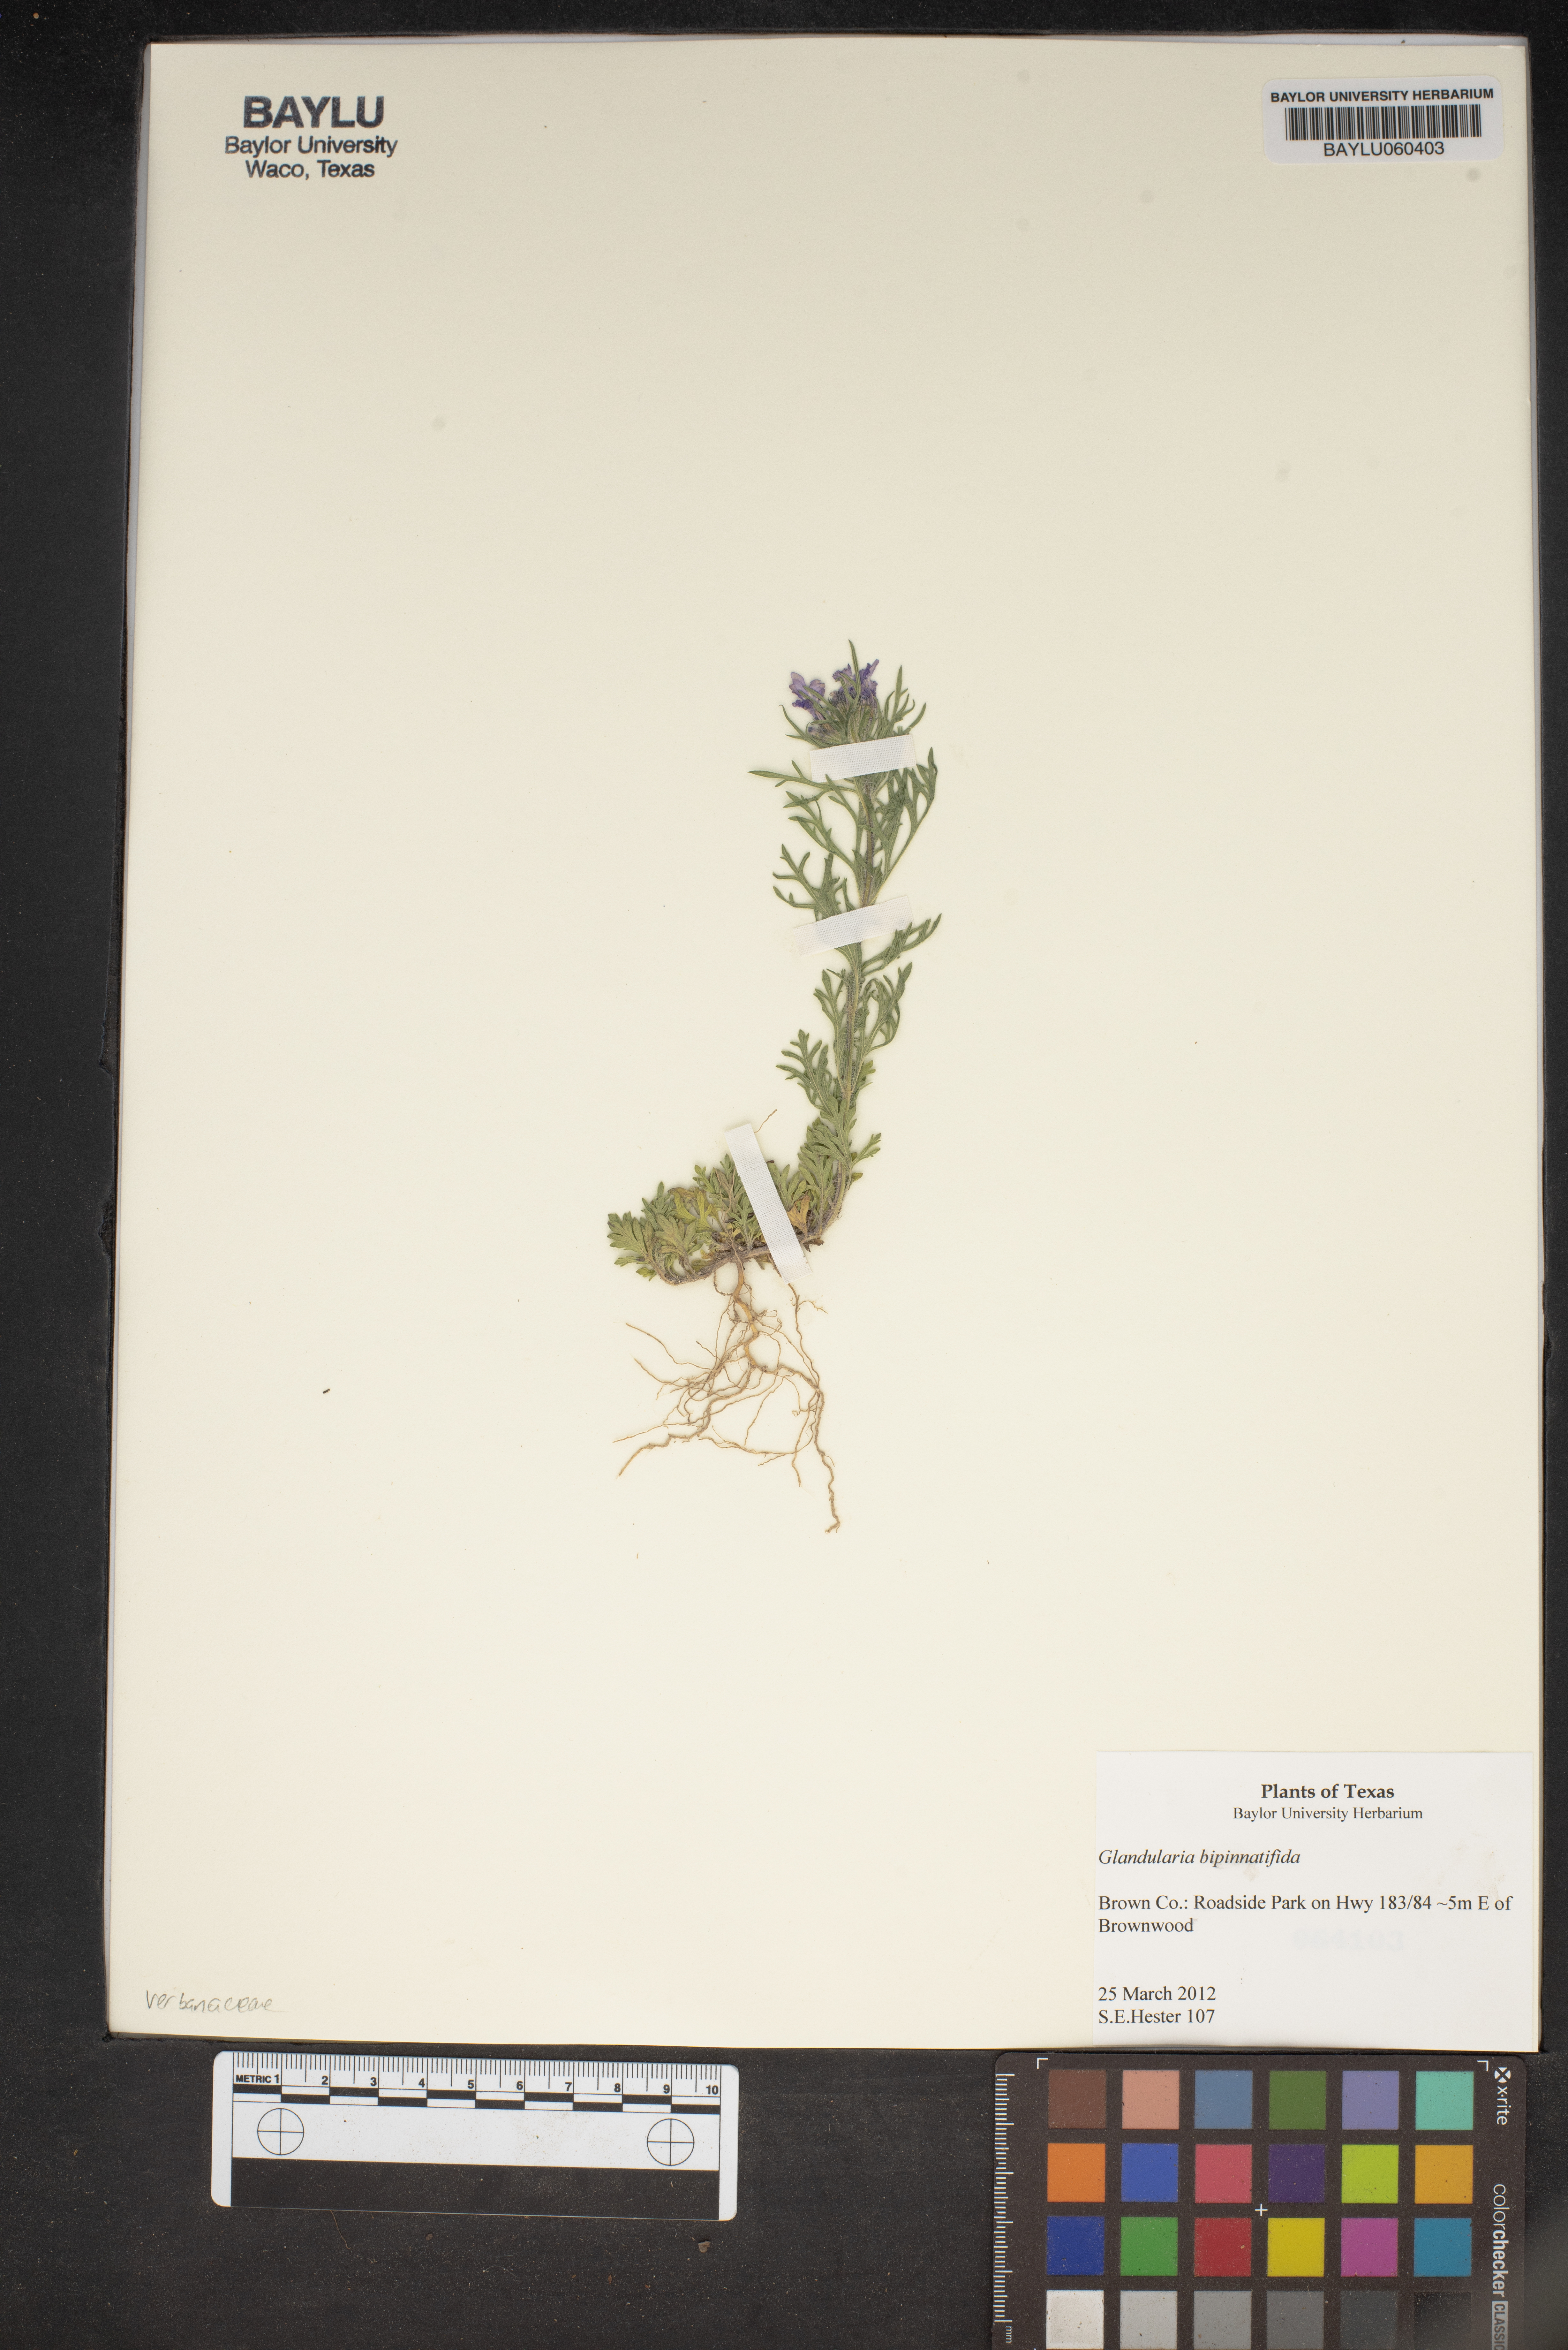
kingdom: Plantae
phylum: Tracheophyta
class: Magnoliopsida
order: Lamiales
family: Verbenaceae
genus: Verbena
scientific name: Verbena bipinnatifida
